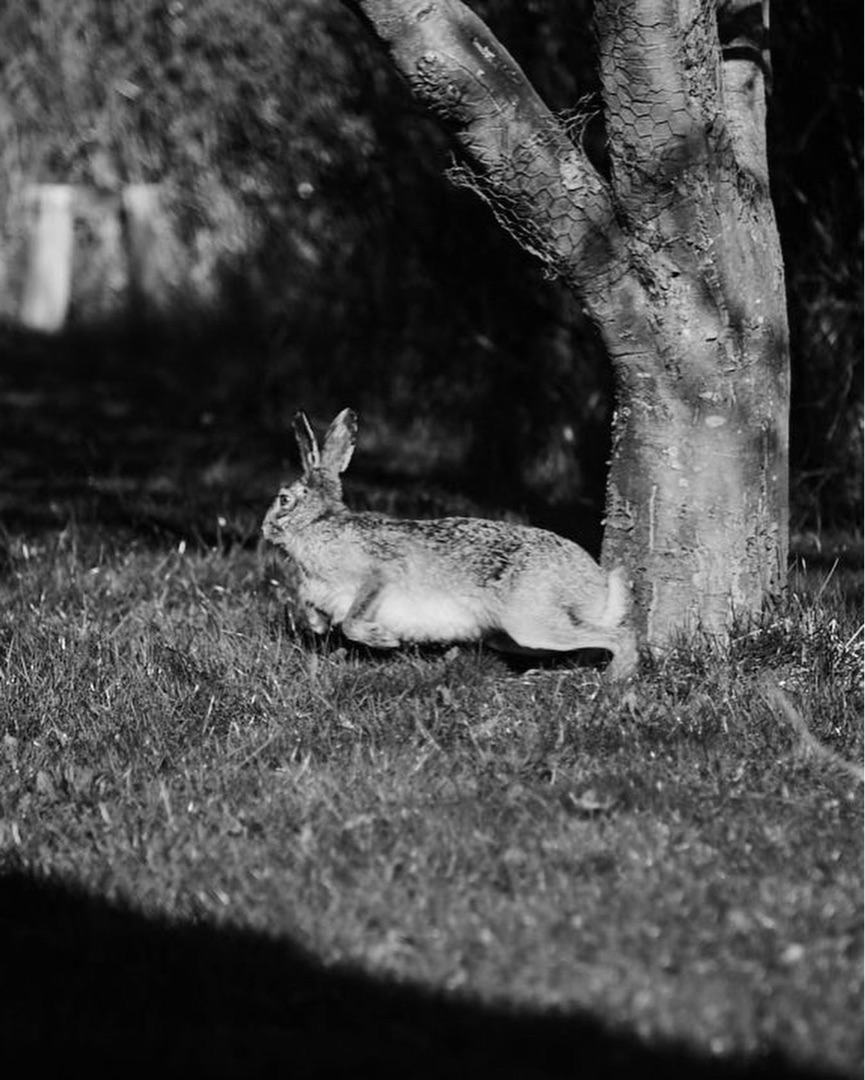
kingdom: Animalia
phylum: Chordata
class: Mammalia
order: Lagomorpha
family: Leporidae
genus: Lepus
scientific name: Lepus europaeus
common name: Hare
